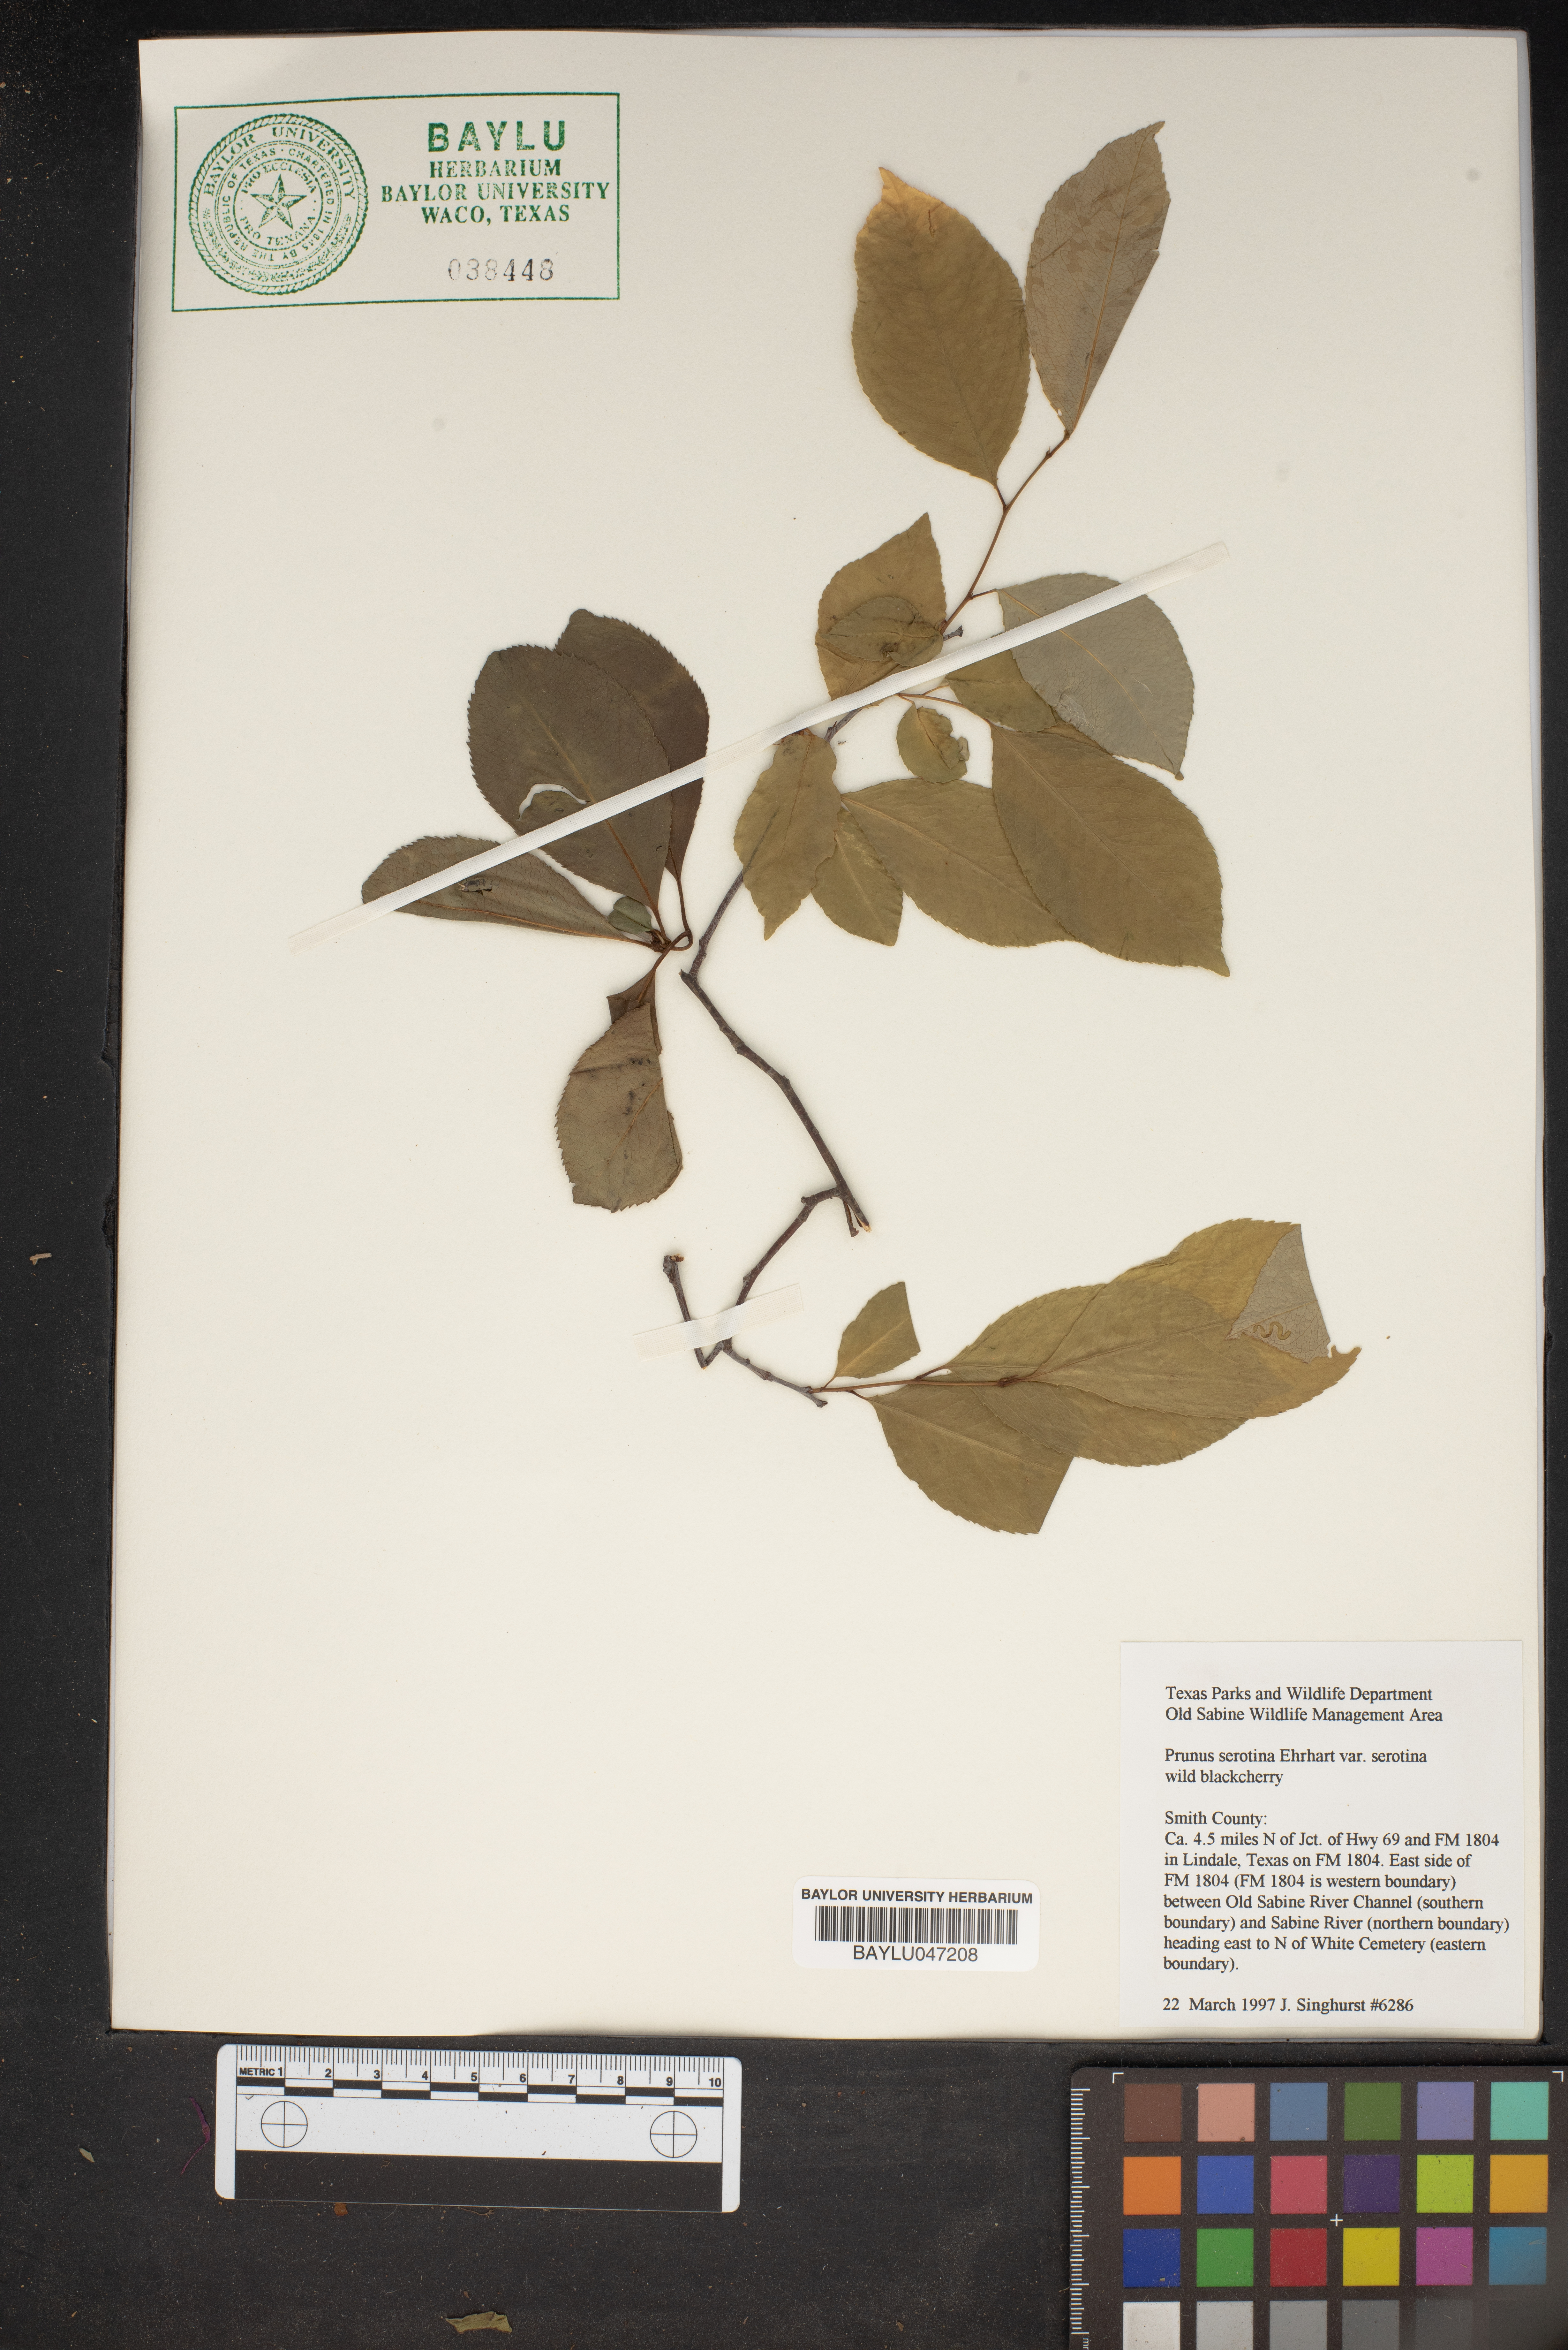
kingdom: Plantae
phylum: Tracheophyta
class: Magnoliopsida
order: Rosales
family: Rosaceae
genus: Prunus
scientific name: Prunus serotina
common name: Black cherry
